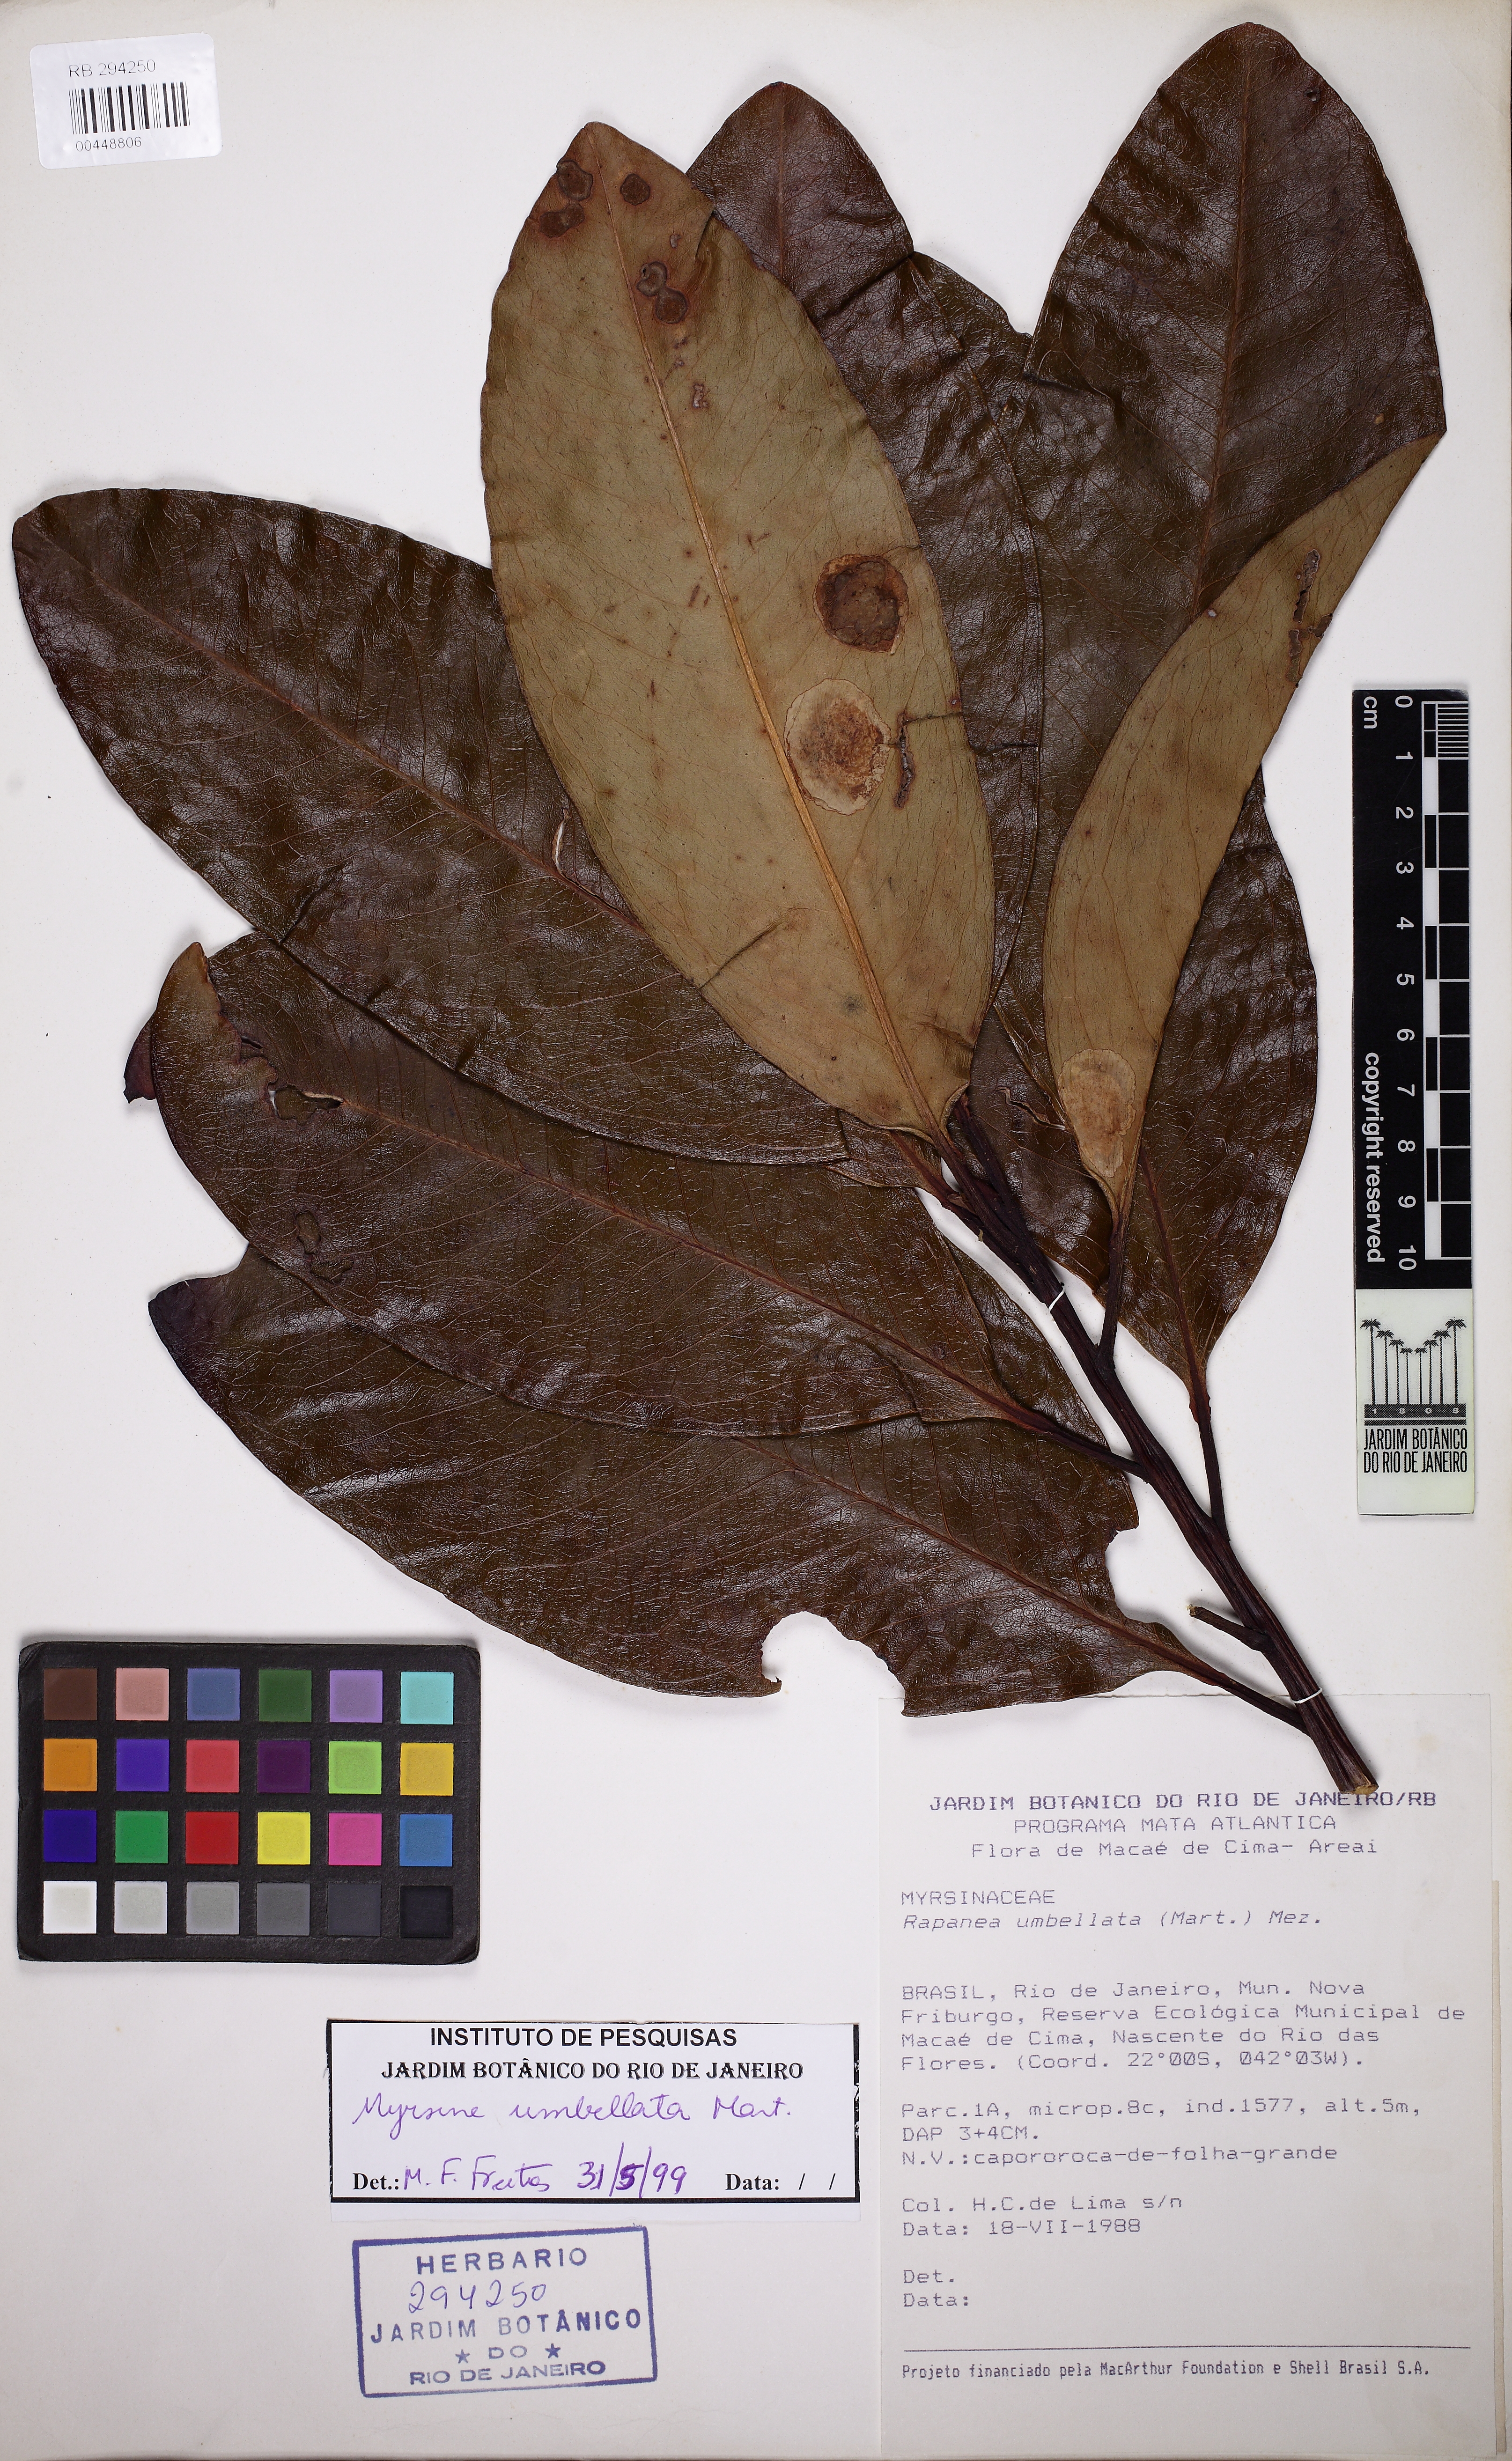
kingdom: Plantae
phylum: Tracheophyta
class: Magnoliopsida
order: Ericales
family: Primulaceae
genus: Myrsine
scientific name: Myrsine umbellata
